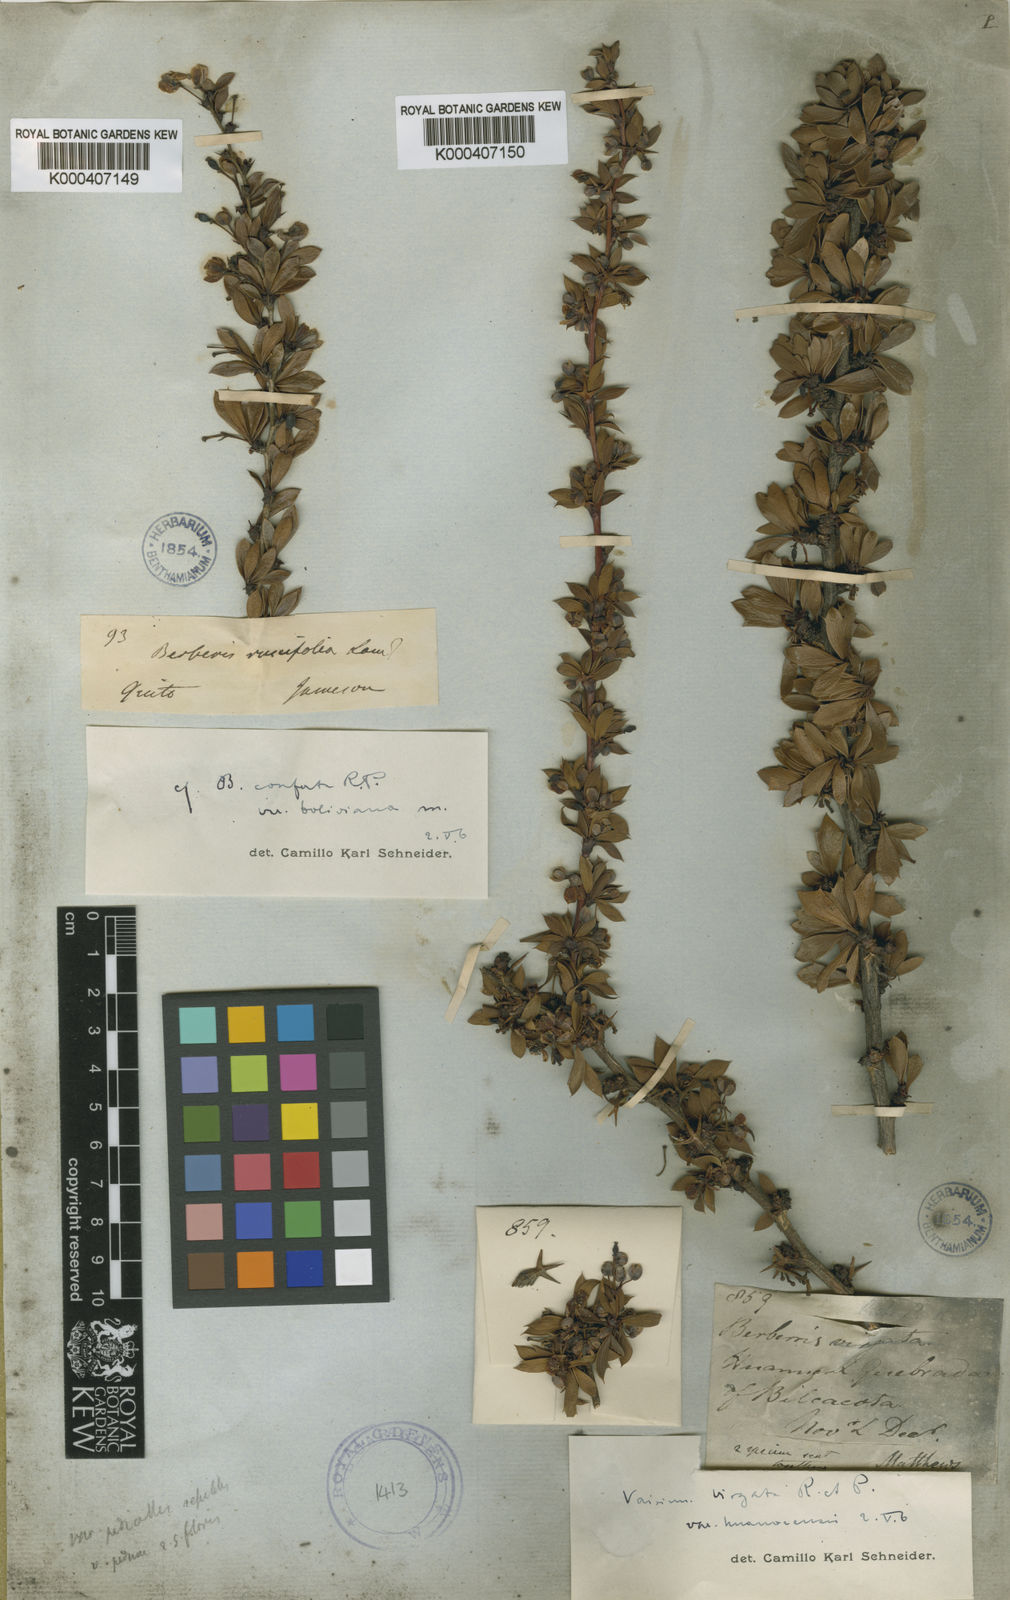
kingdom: Plantae
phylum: Tracheophyta
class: Magnoliopsida
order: Ranunculales
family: Berberidaceae
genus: Berberis
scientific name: Berberis lutea
